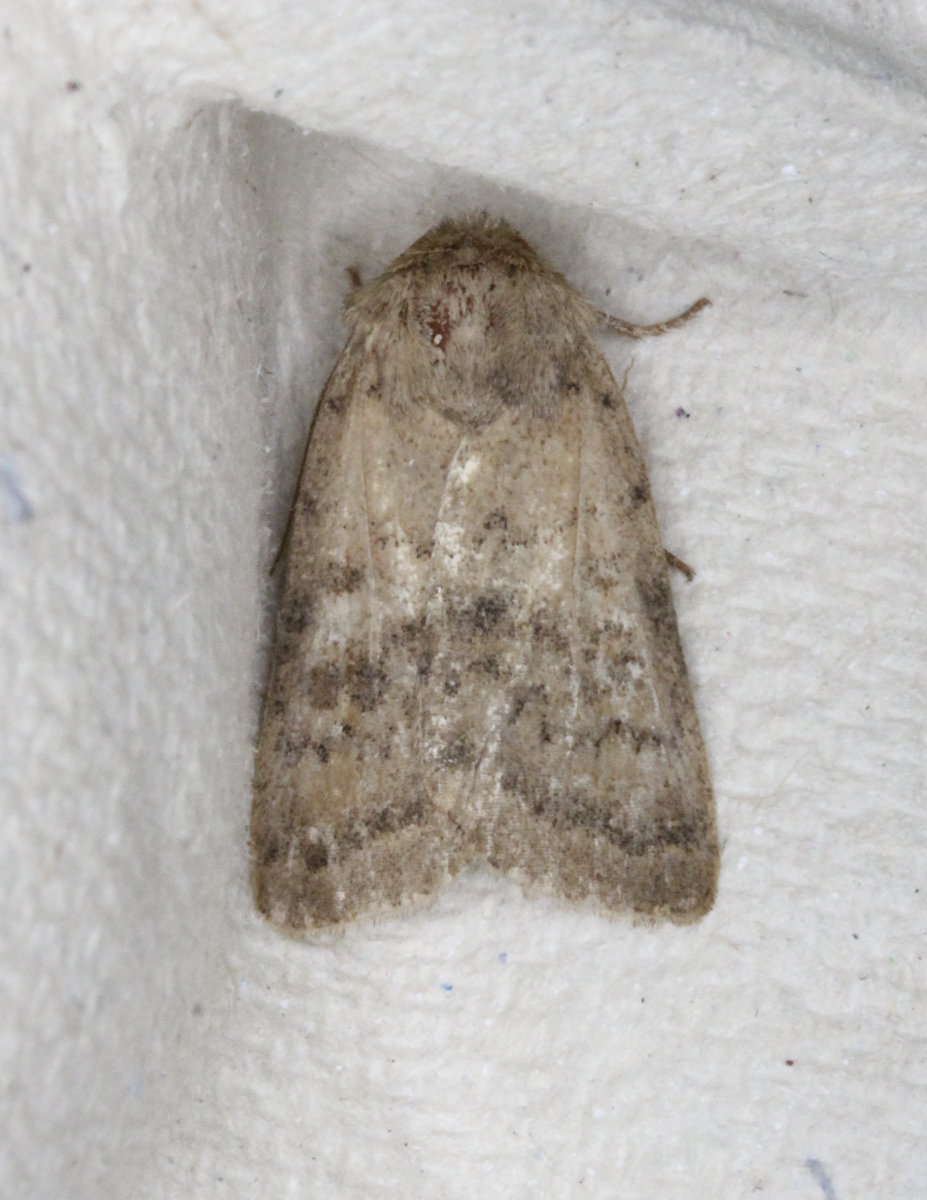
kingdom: Animalia
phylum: Arthropoda
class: Insecta
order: Lepidoptera
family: Noctuidae
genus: Hoplodrina
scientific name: Hoplodrina octogenaria
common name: Uncertain
